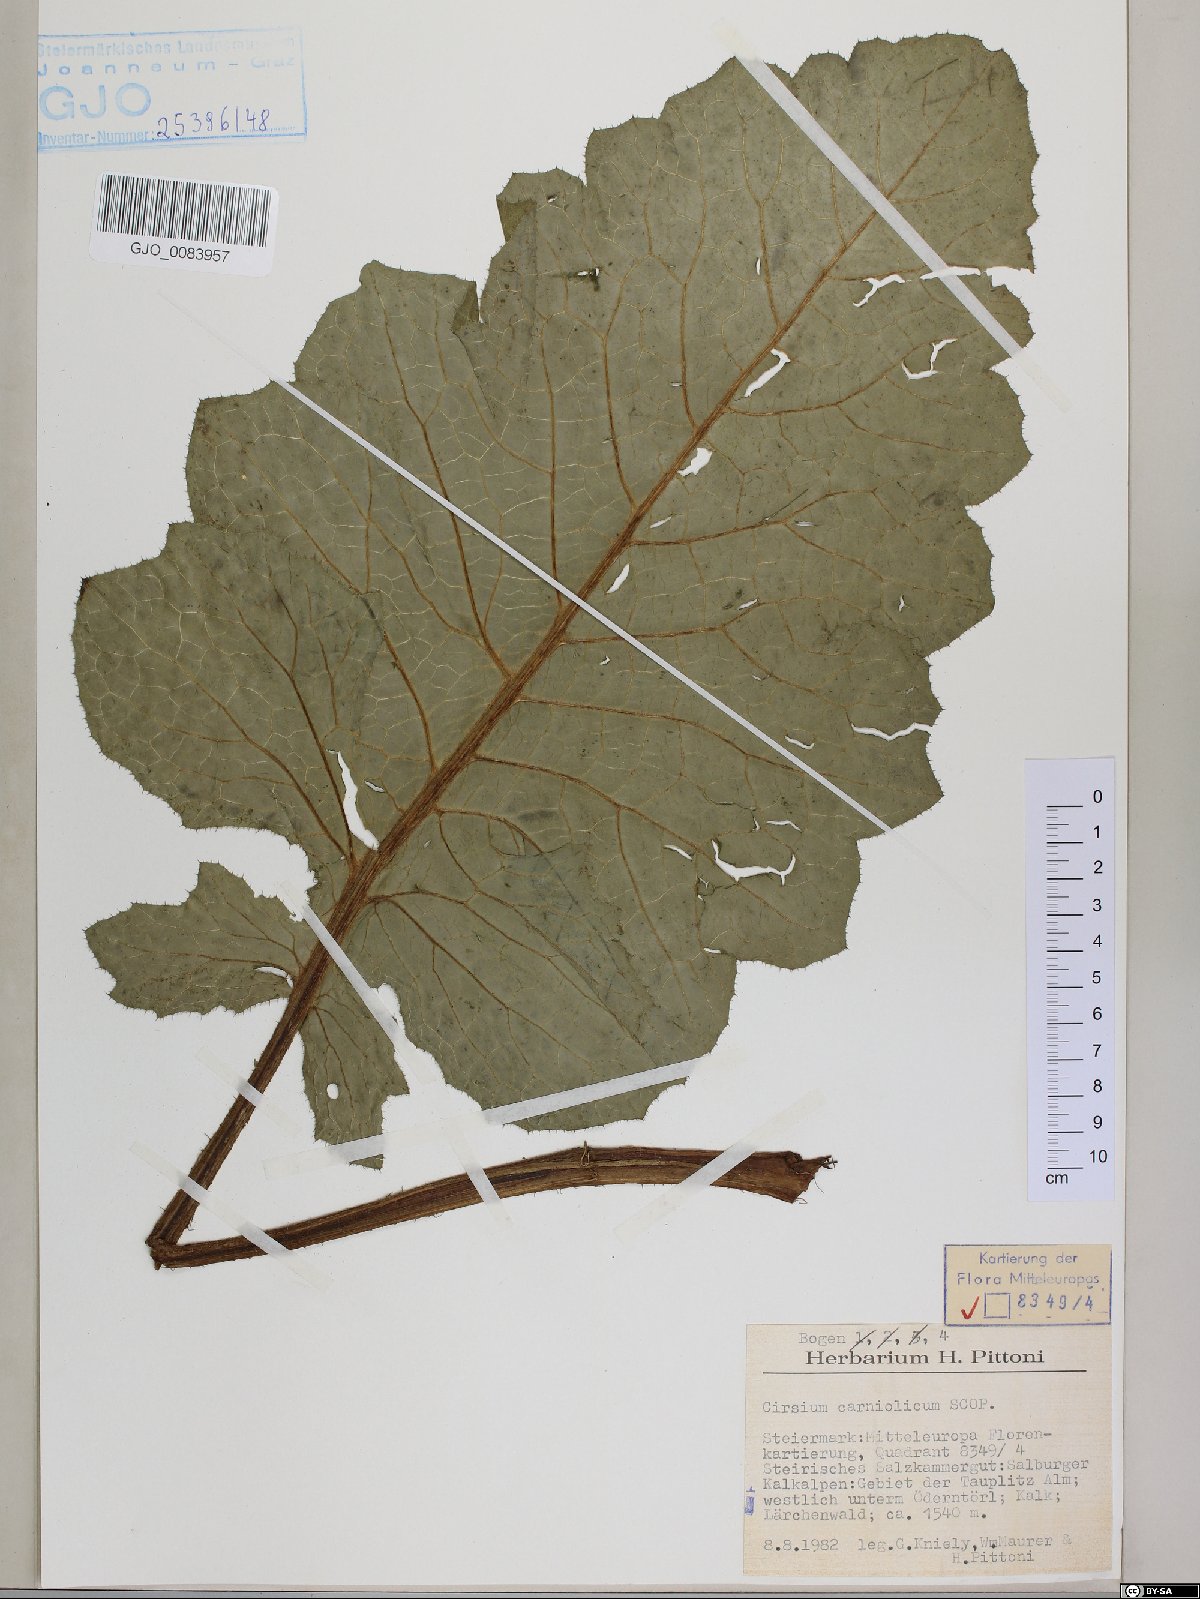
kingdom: Plantae
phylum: Tracheophyta
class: Magnoliopsida
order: Asterales
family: Asteraceae
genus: Cirsium
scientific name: Cirsium carniolicum
